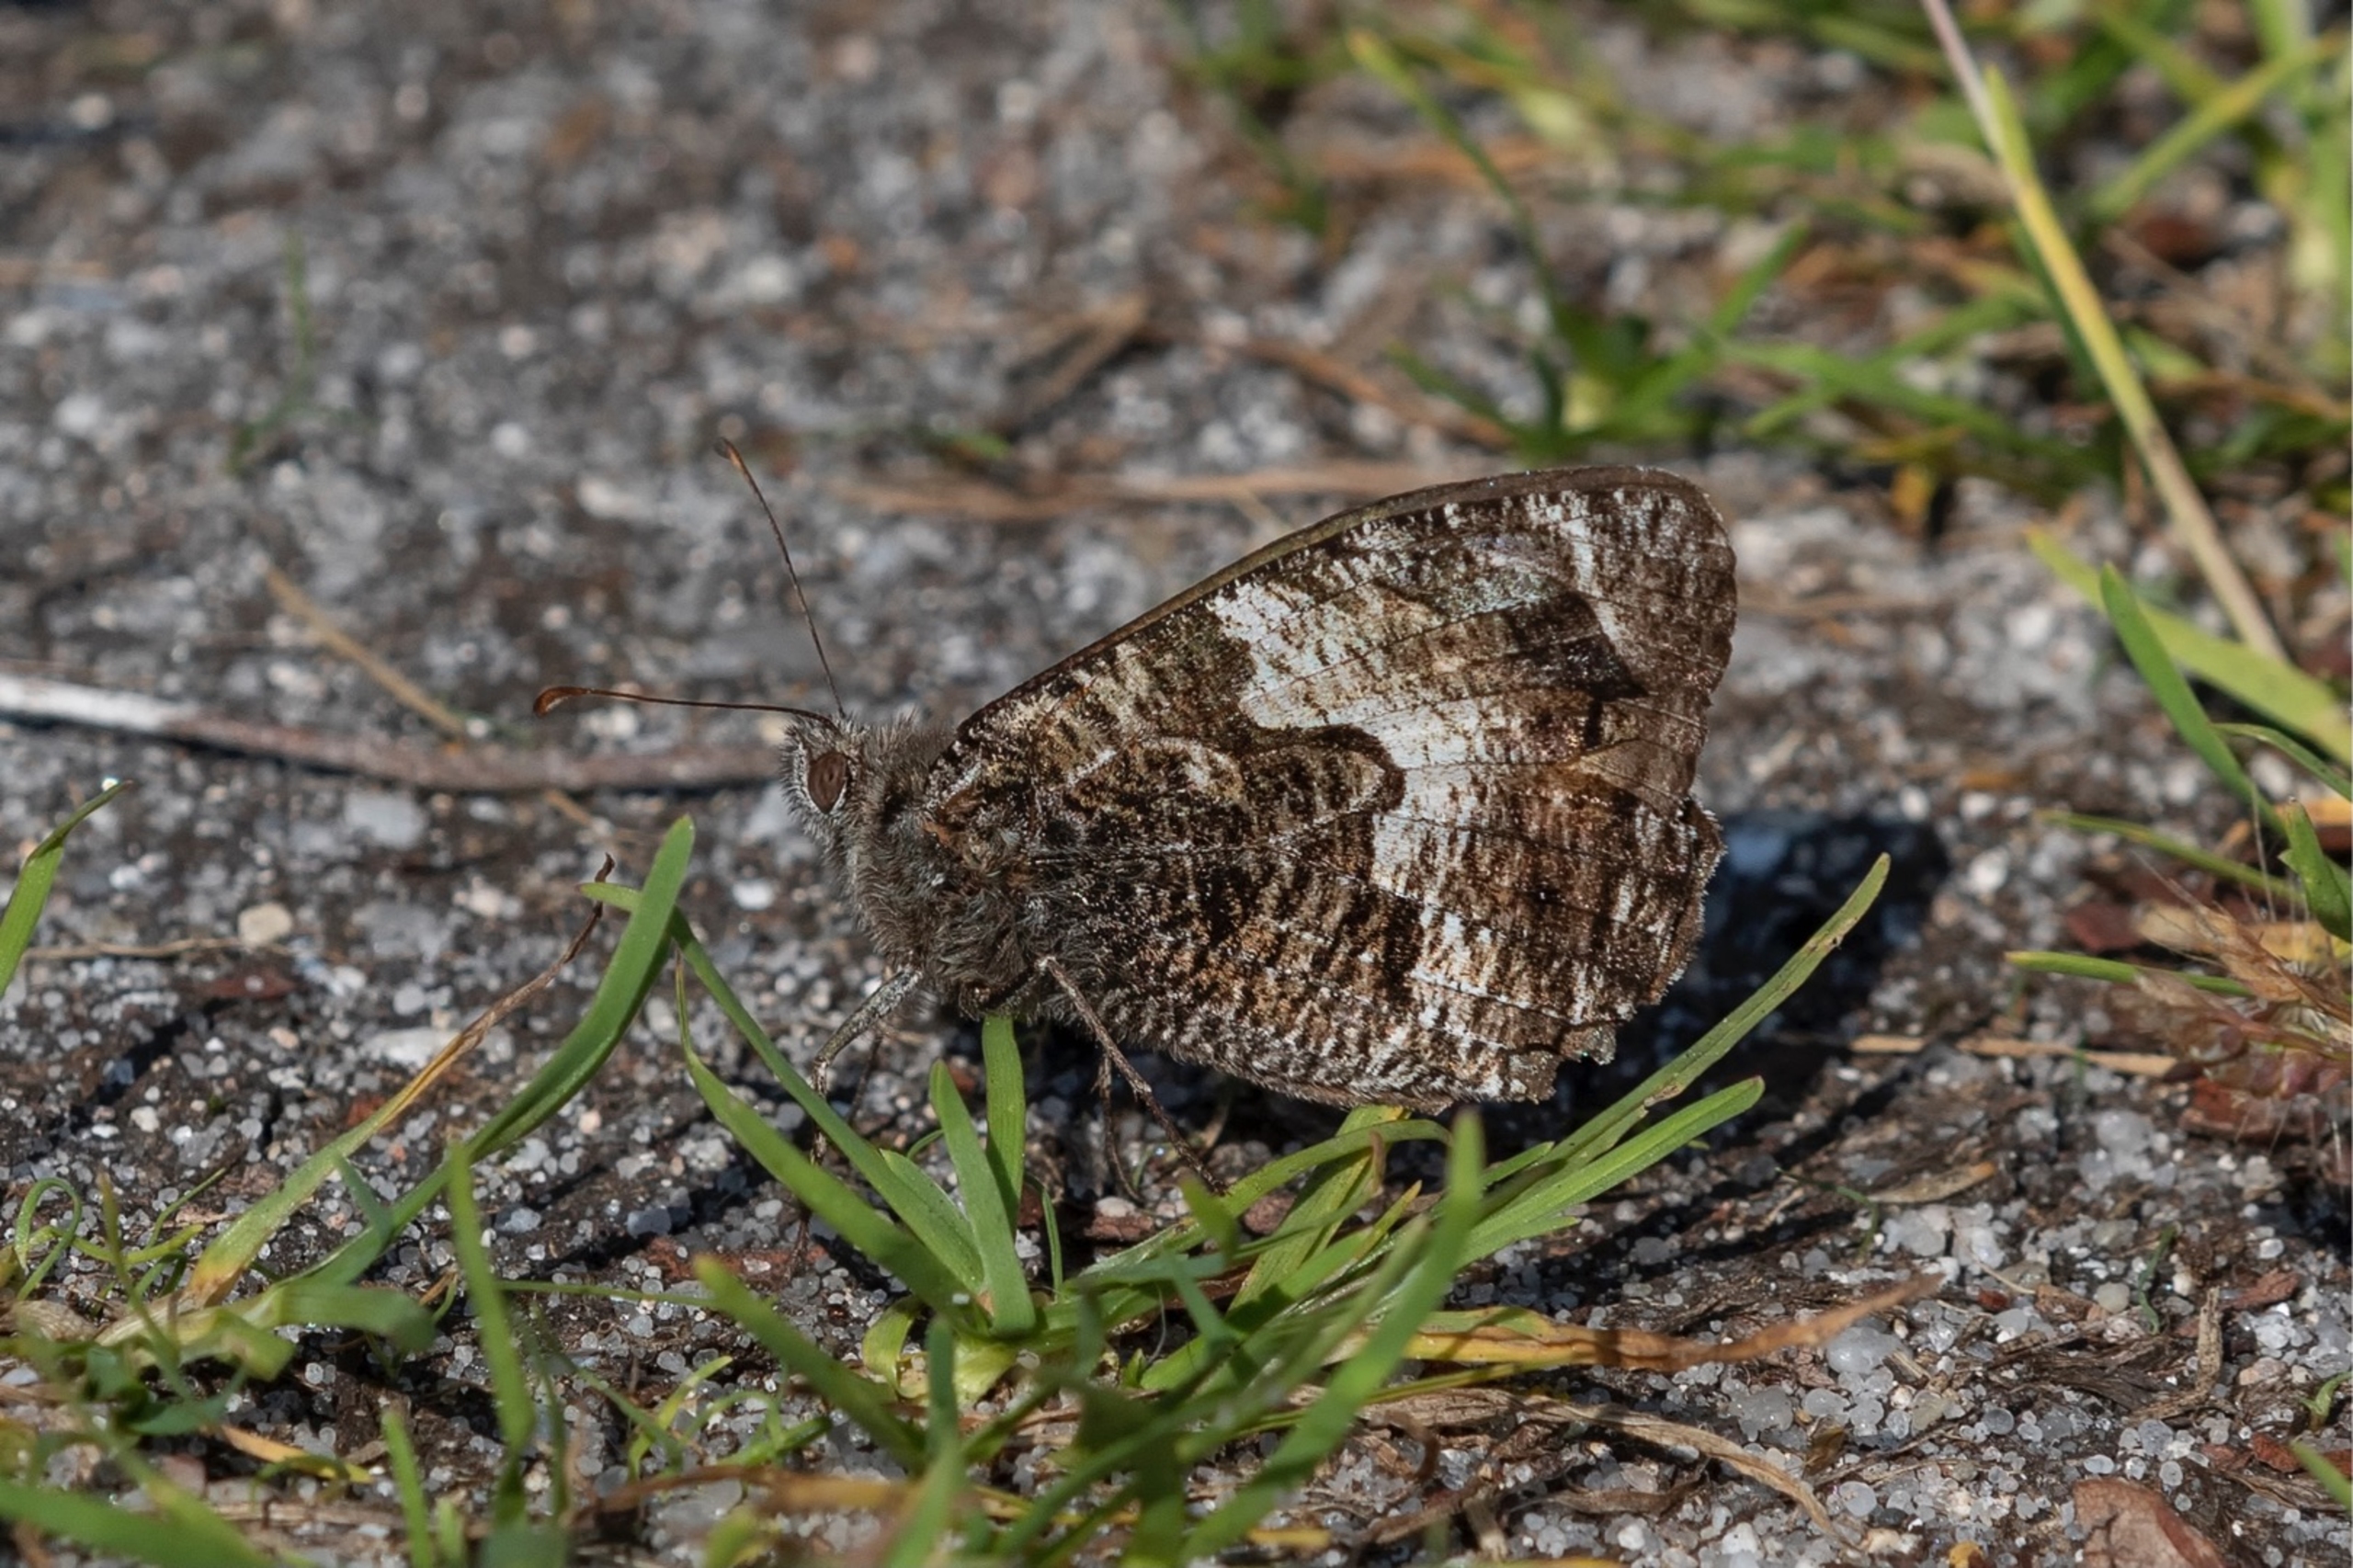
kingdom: Animalia
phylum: Arthropoda
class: Insecta
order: Lepidoptera
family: Nymphalidae
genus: Hipparchia
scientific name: Hipparchia semele
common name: Sandrandøje
